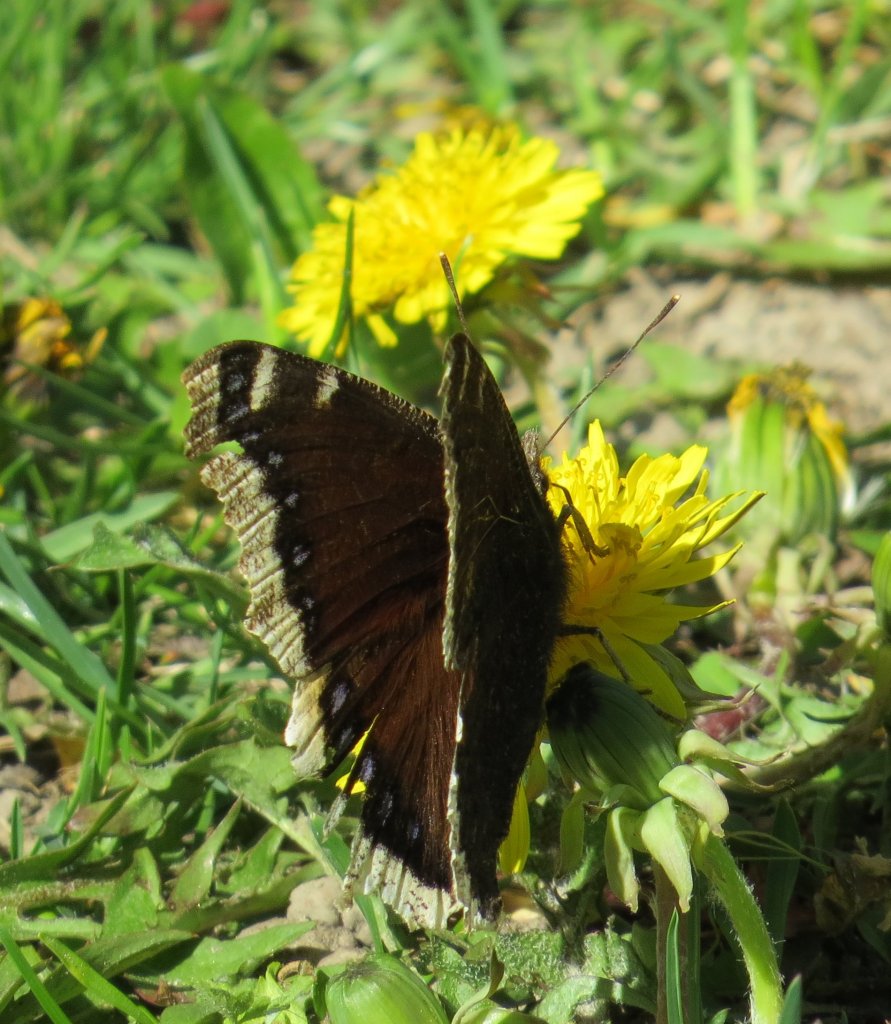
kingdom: Animalia
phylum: Arthropoda
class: Insecta
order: Lepidoptera
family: Nymphalidae
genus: Nymphalis
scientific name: Nymphalis antiopa
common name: Mourning Cloak
